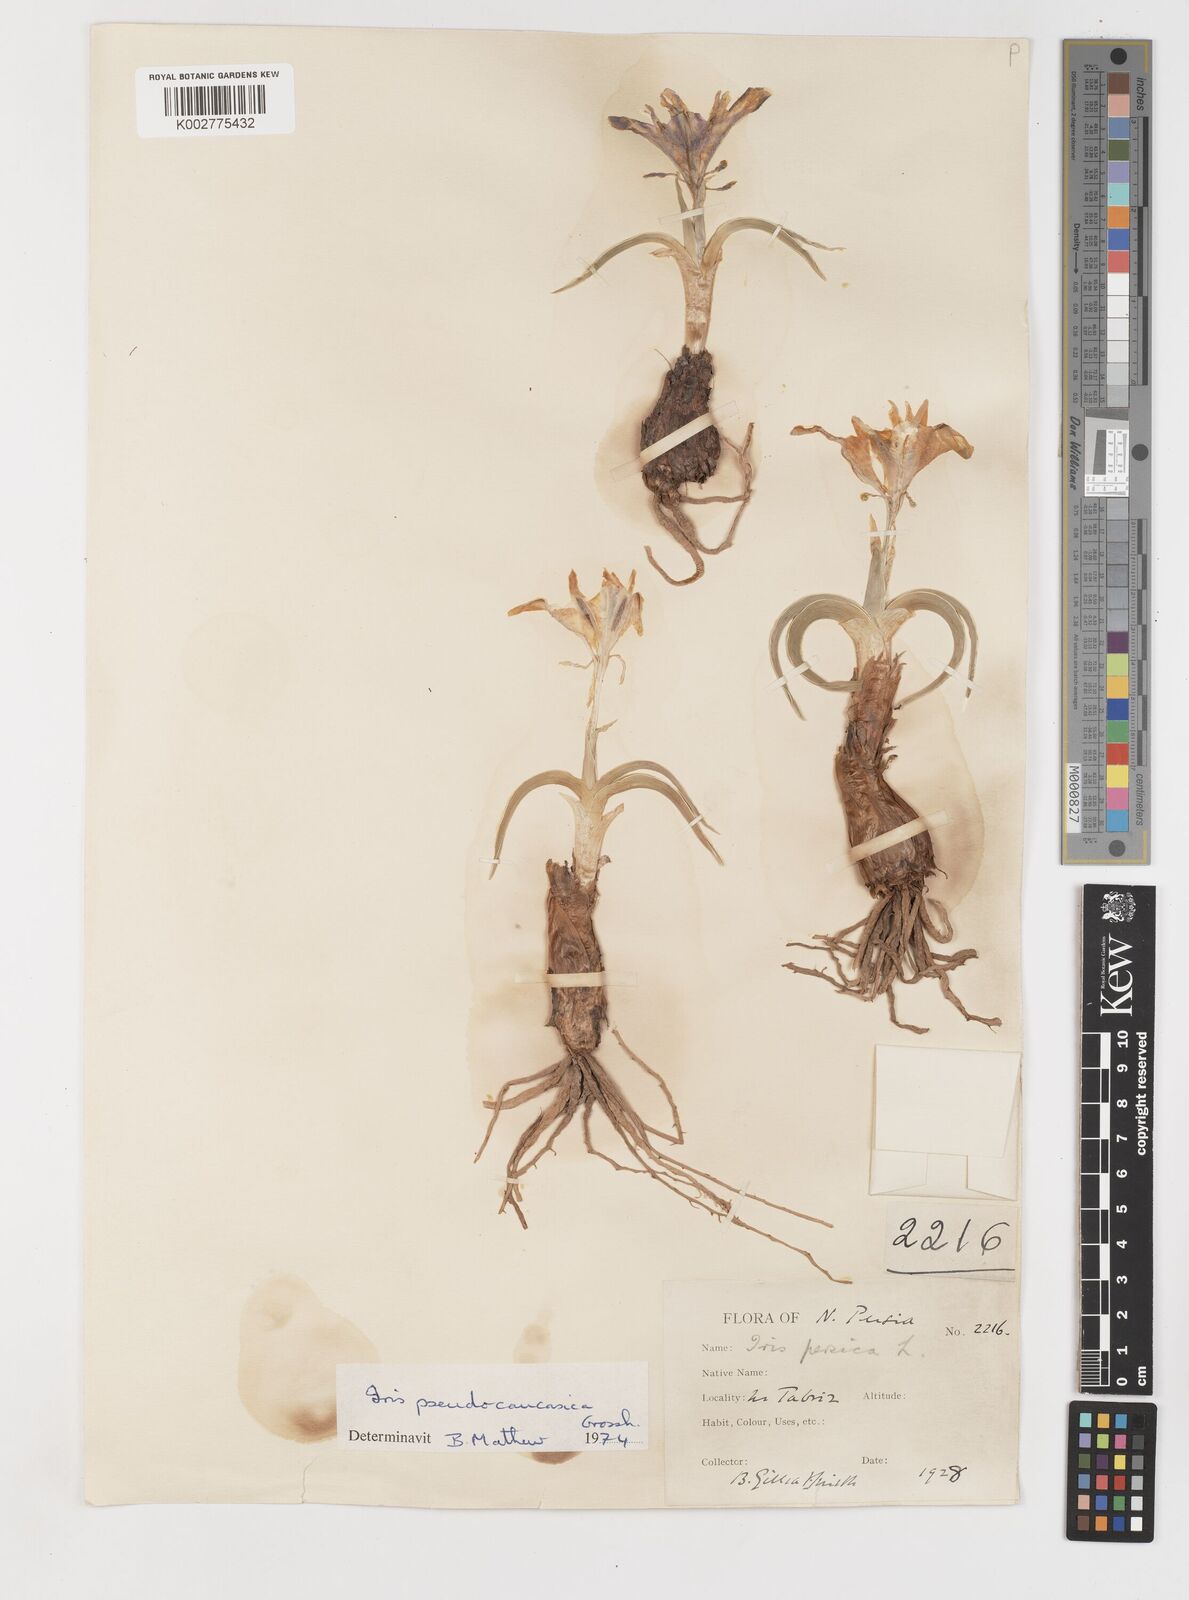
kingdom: Plantae
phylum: Tracheophyta
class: Liliopsida
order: Asparagales
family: Iridaceae
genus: Iris
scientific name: Iris pseudocaucasica
